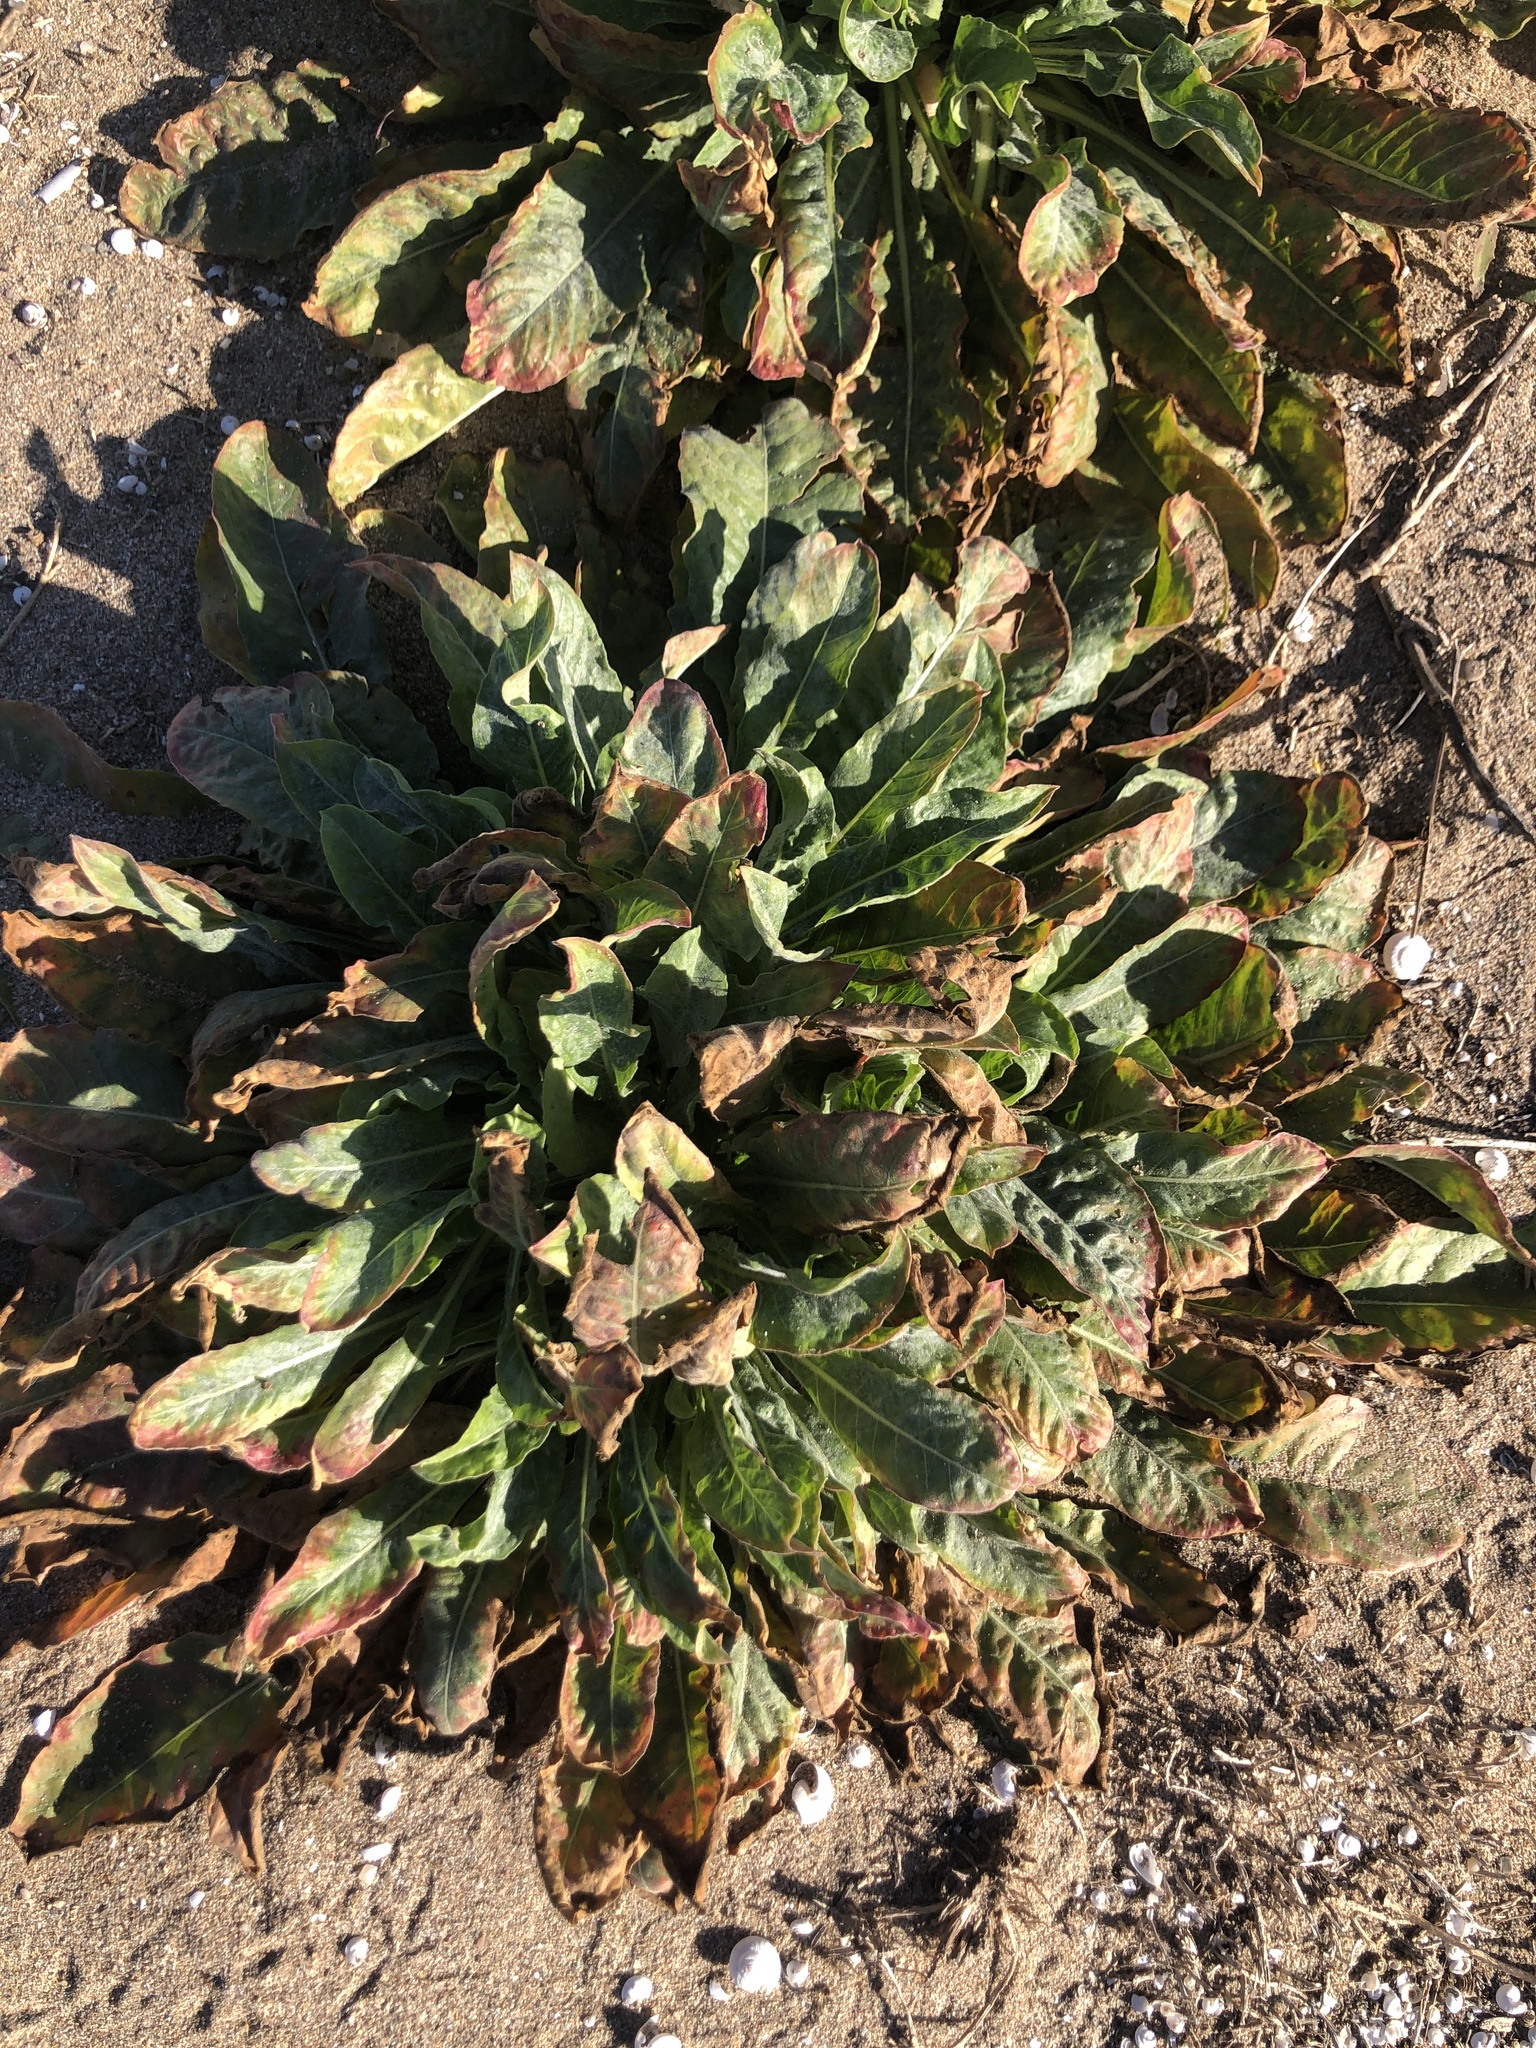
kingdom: Plantae
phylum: Tracheophyta
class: Magnoliopsida
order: Myrtales
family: Onagraceae
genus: Oenothera
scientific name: Oenothera glazioviana
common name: Large-flowered evening-primrose
